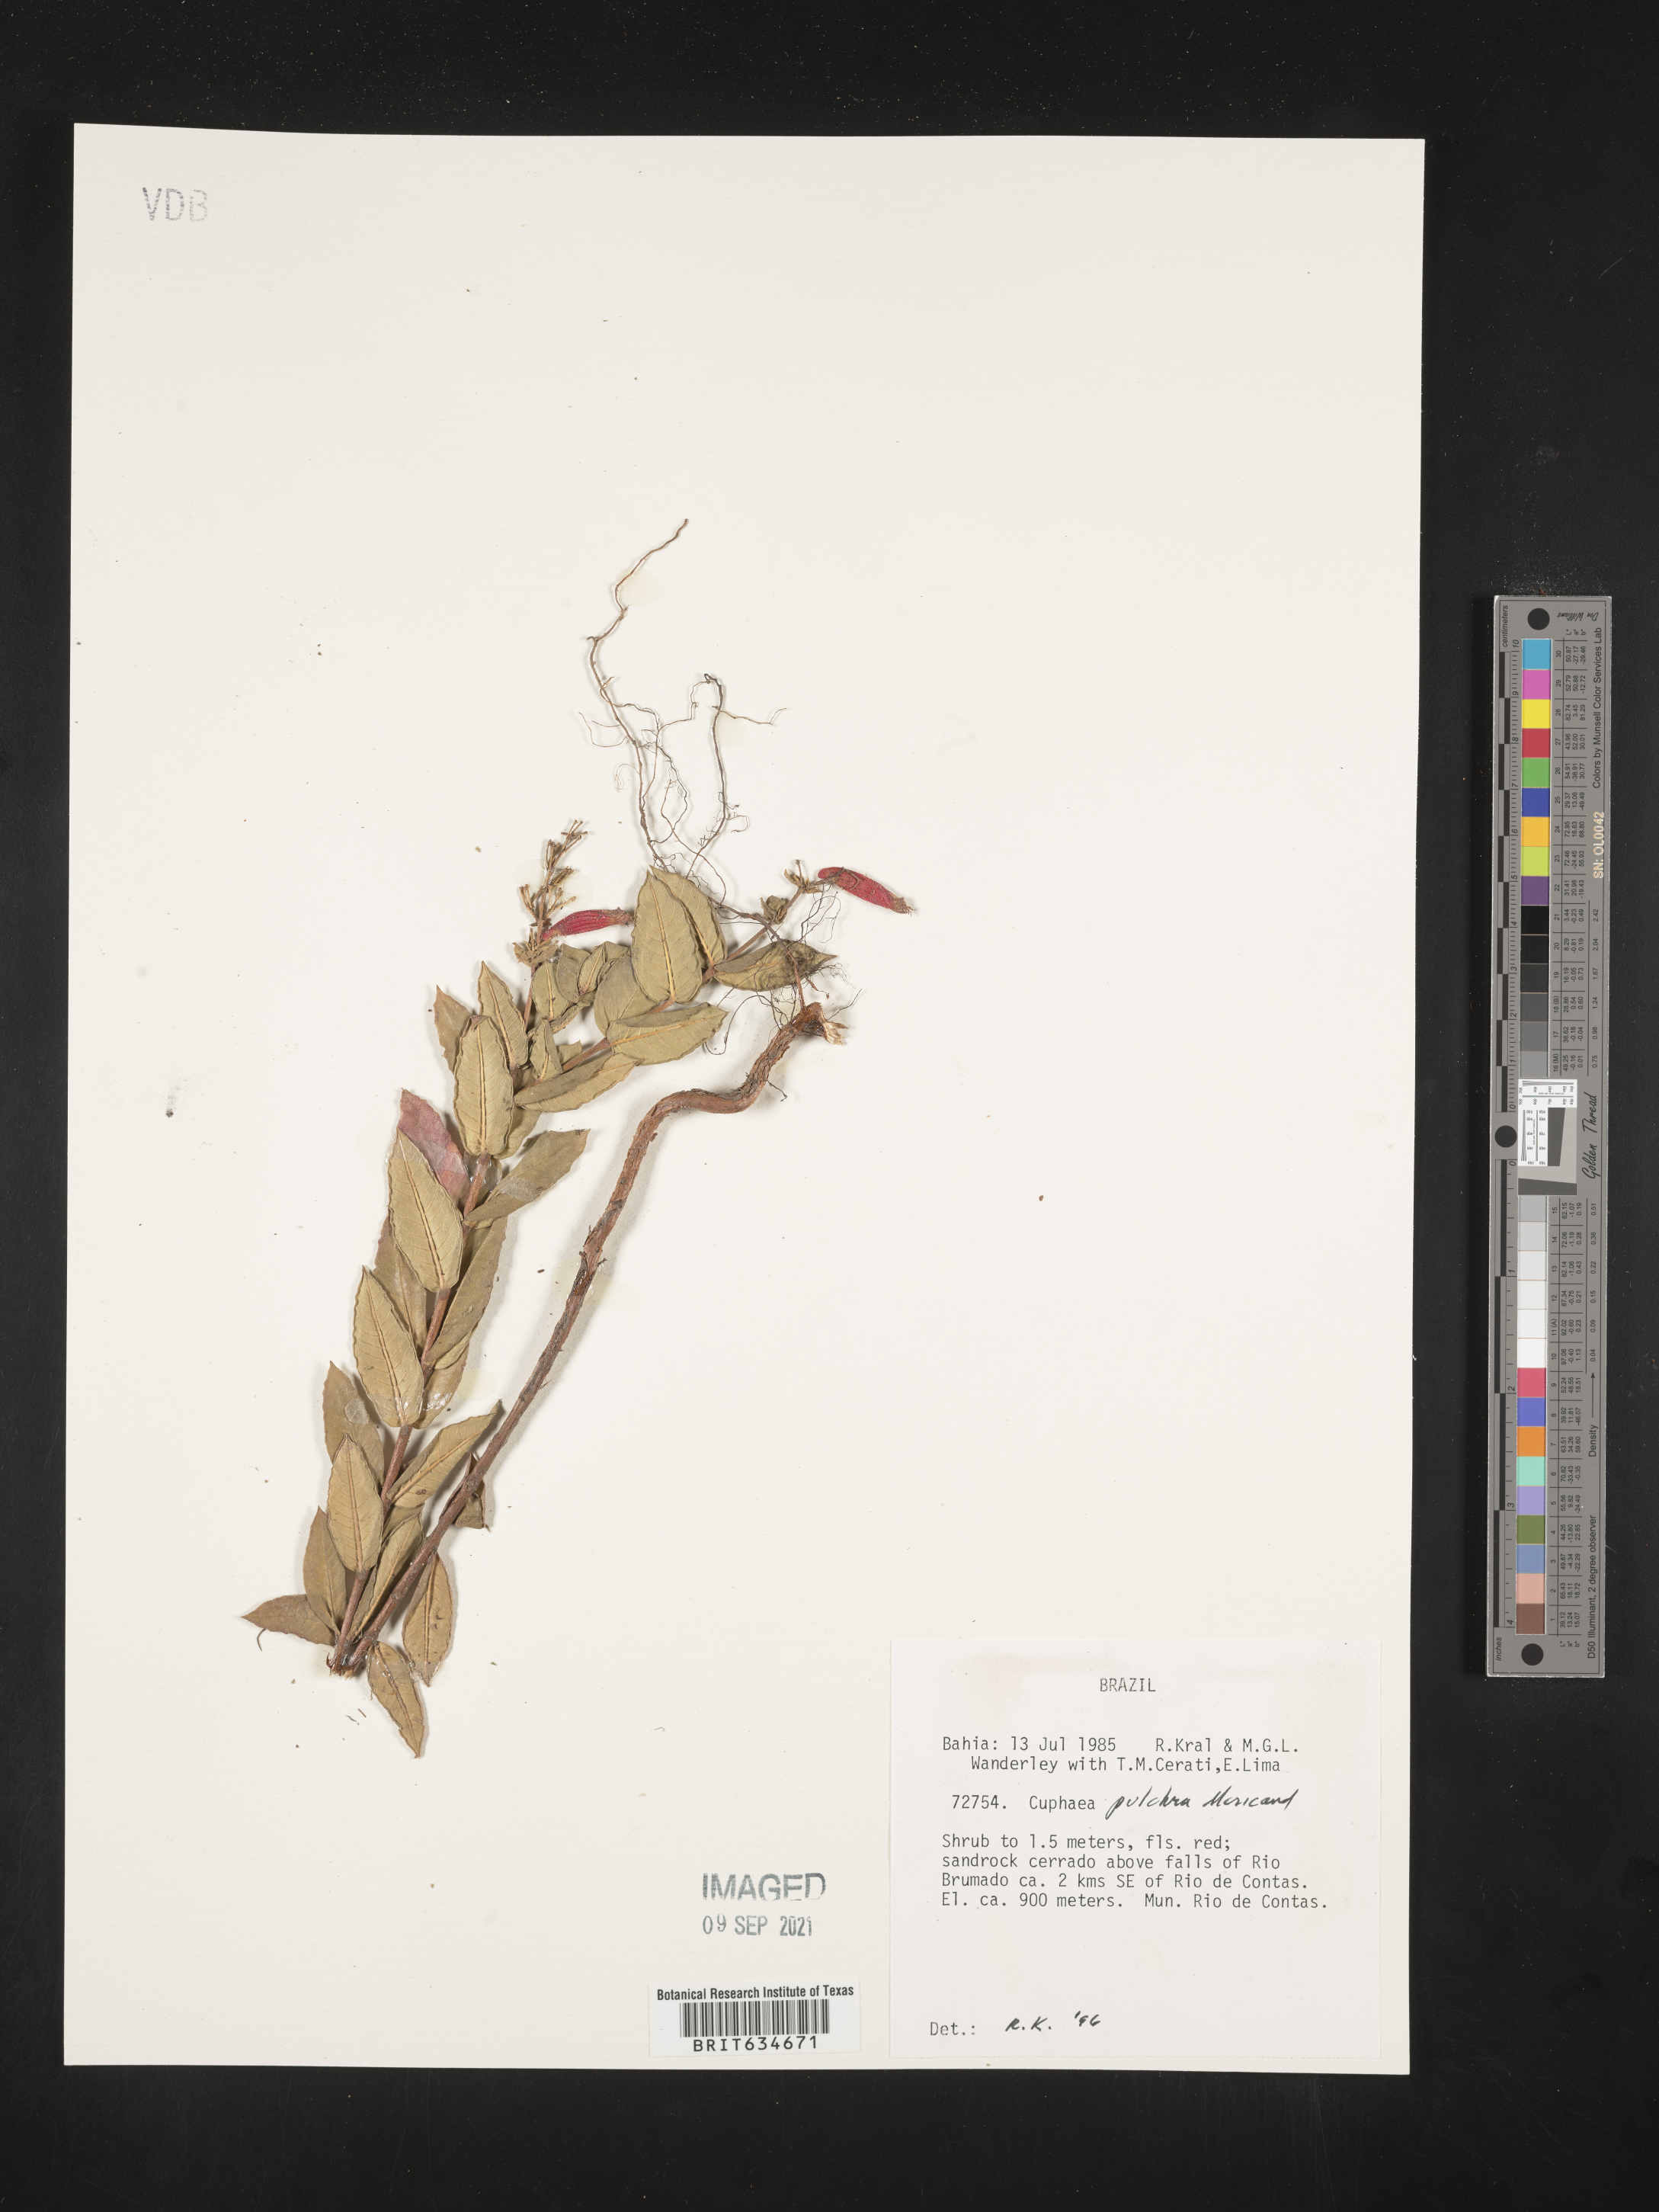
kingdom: Plantae
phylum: Tracheophyta
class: Magnoliopsida
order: Myrtales
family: Lythraceae
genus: Cuphea
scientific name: Cuphea
